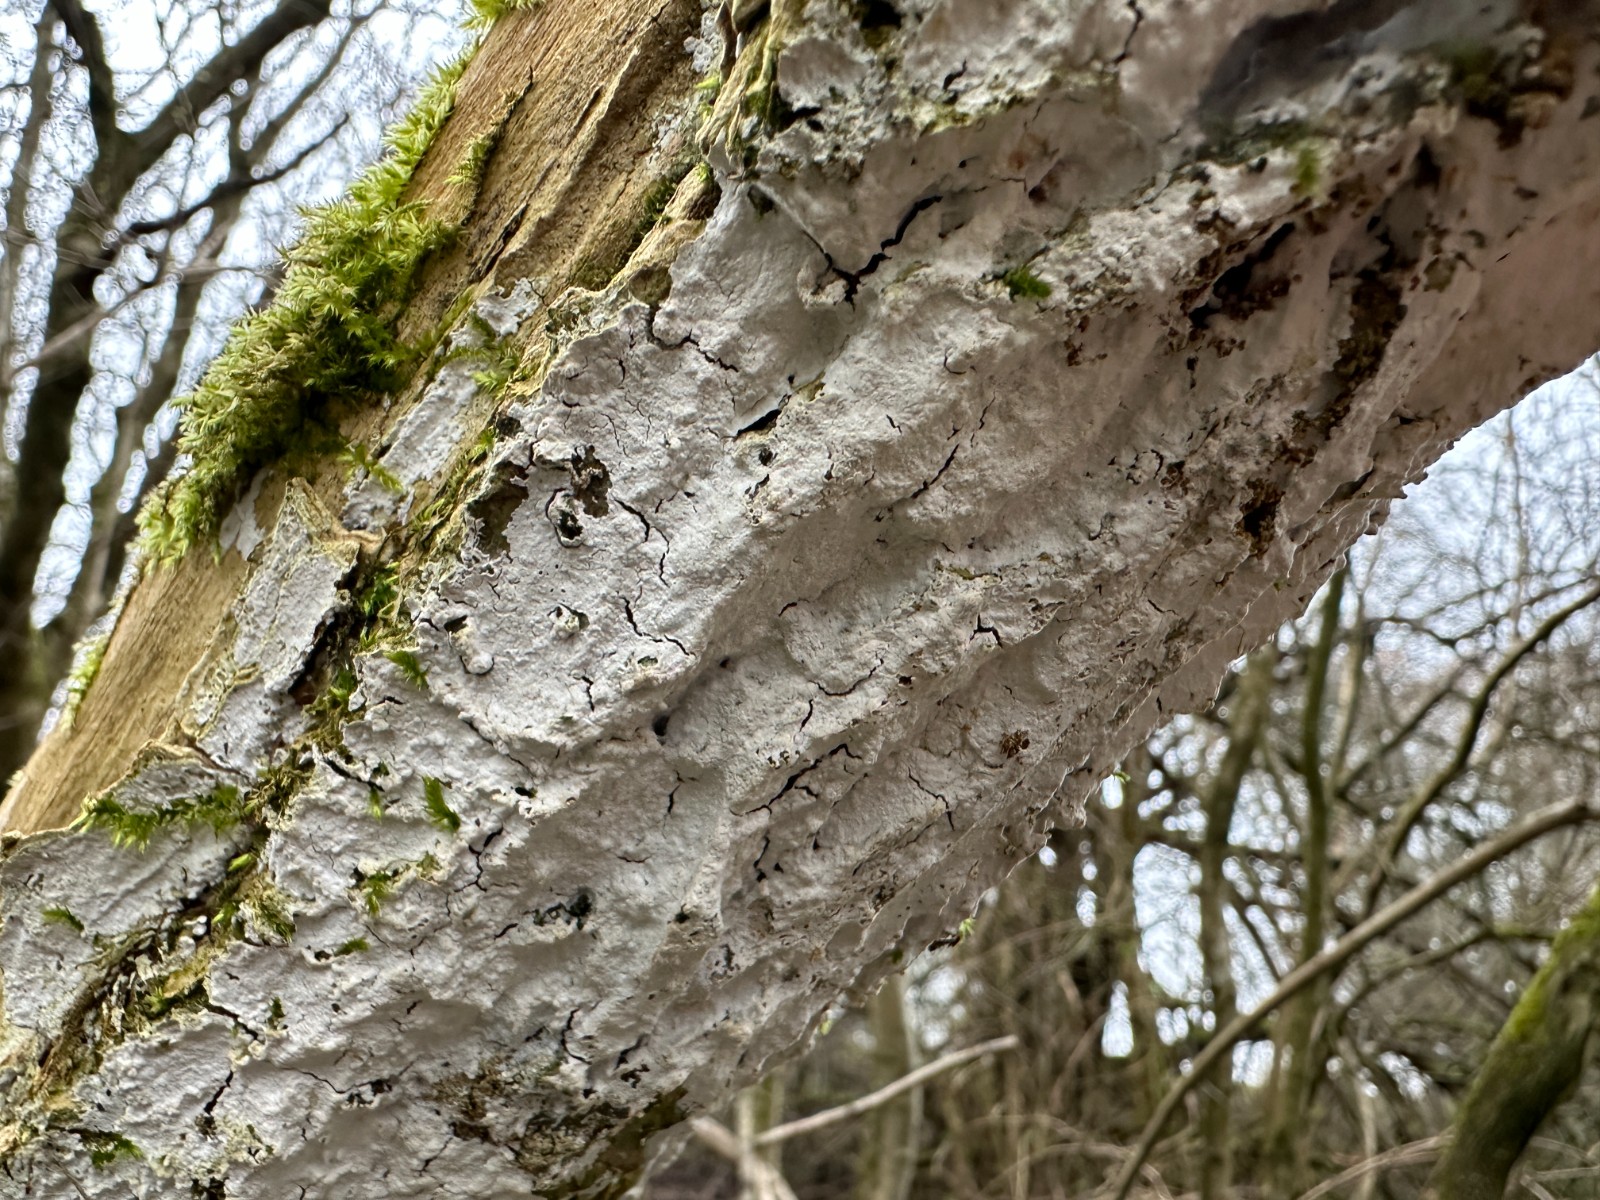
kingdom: Fungi
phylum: Basidiomycota
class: Agaricomycetes
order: Corticiales
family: Corticiaceae
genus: Lyomyces
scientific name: Lyomyces sambuci
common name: almindelig hyldehinde
